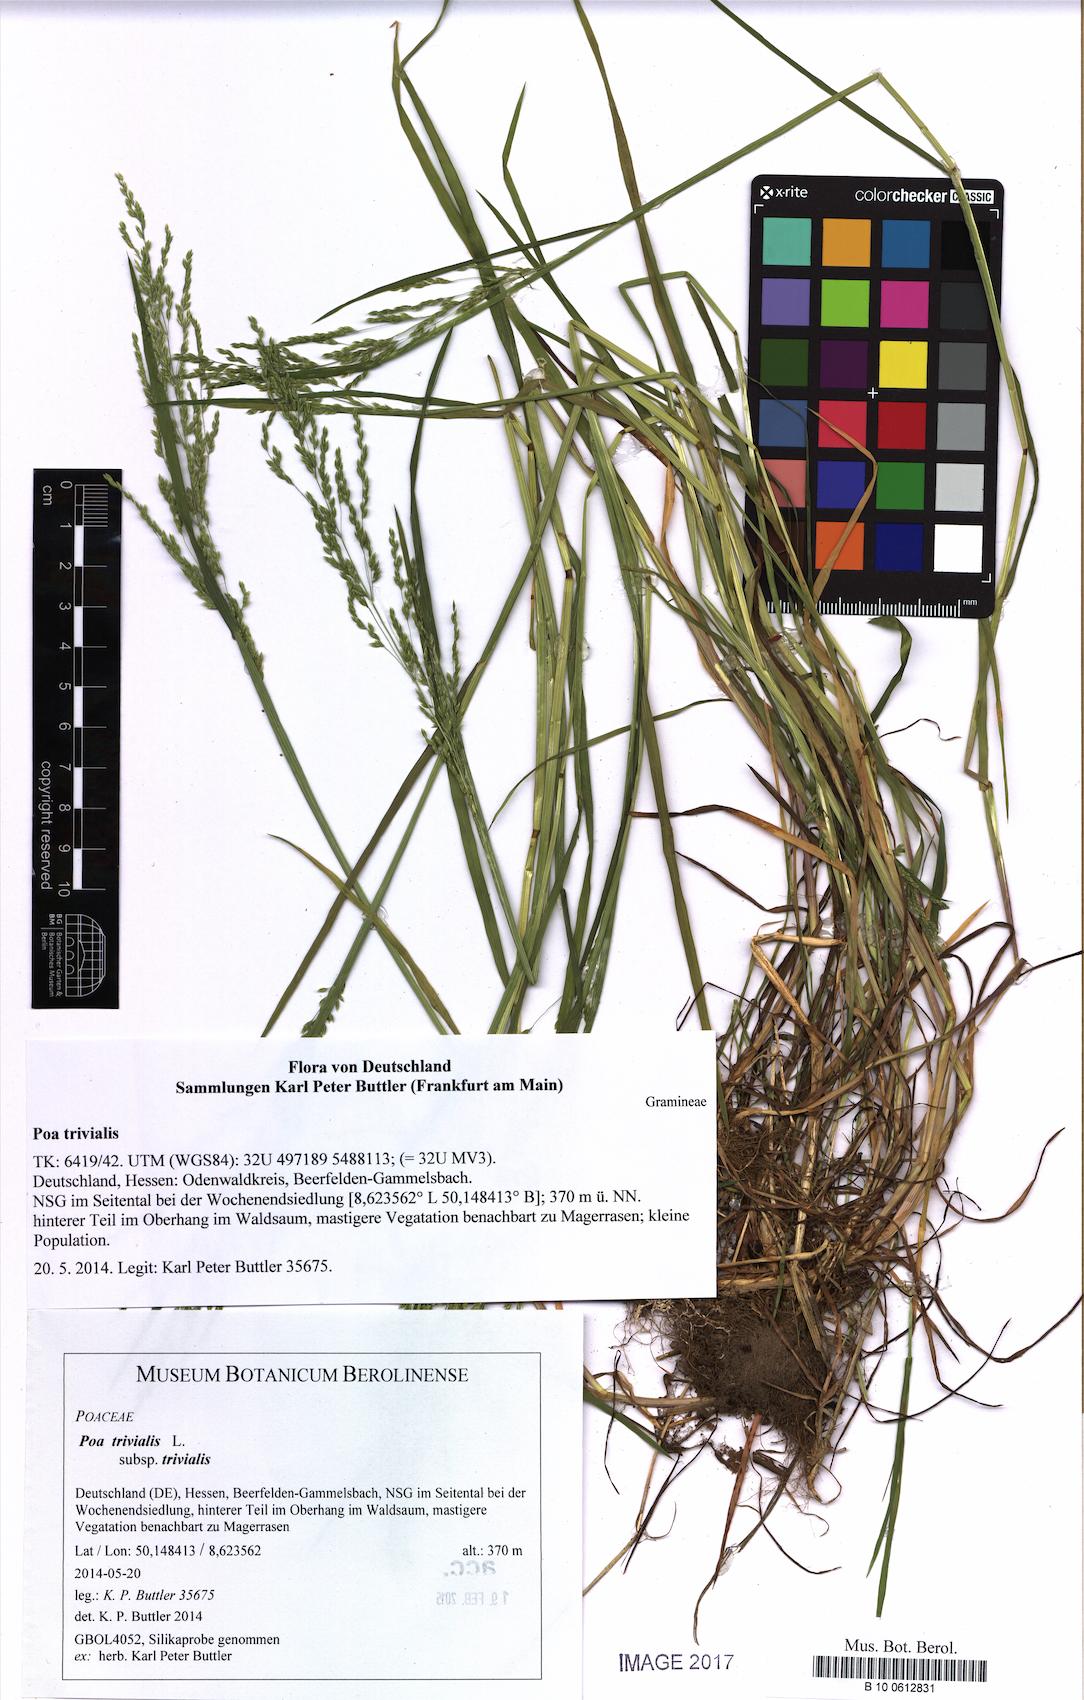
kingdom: Plantae
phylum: Tracheophyta
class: Liliopsida
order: Poales
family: Poaceae
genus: Poa
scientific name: Poa trivialis
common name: Rough bluegrass
